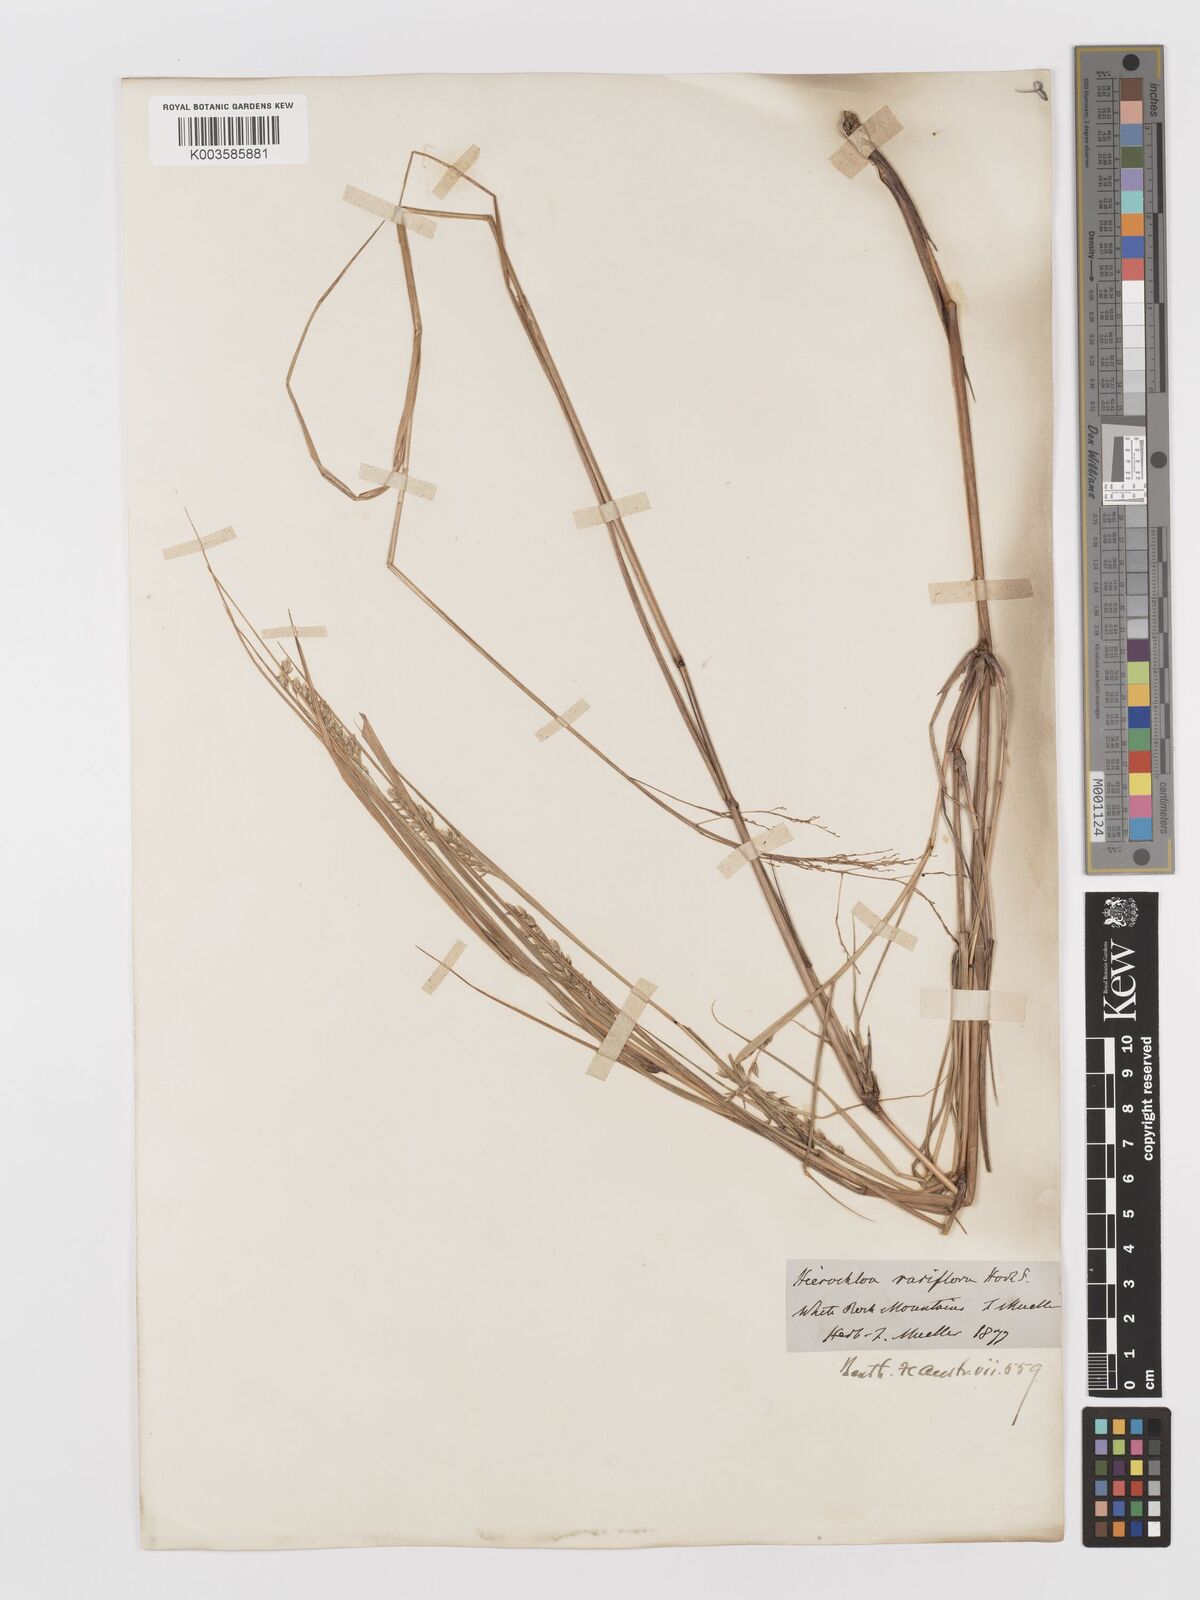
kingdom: Plantae
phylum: Tracheophyta
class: Liliopsida
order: Poales
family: Poaceae
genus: Anthoxanthum
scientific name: Anthoxanthum rariflorum
